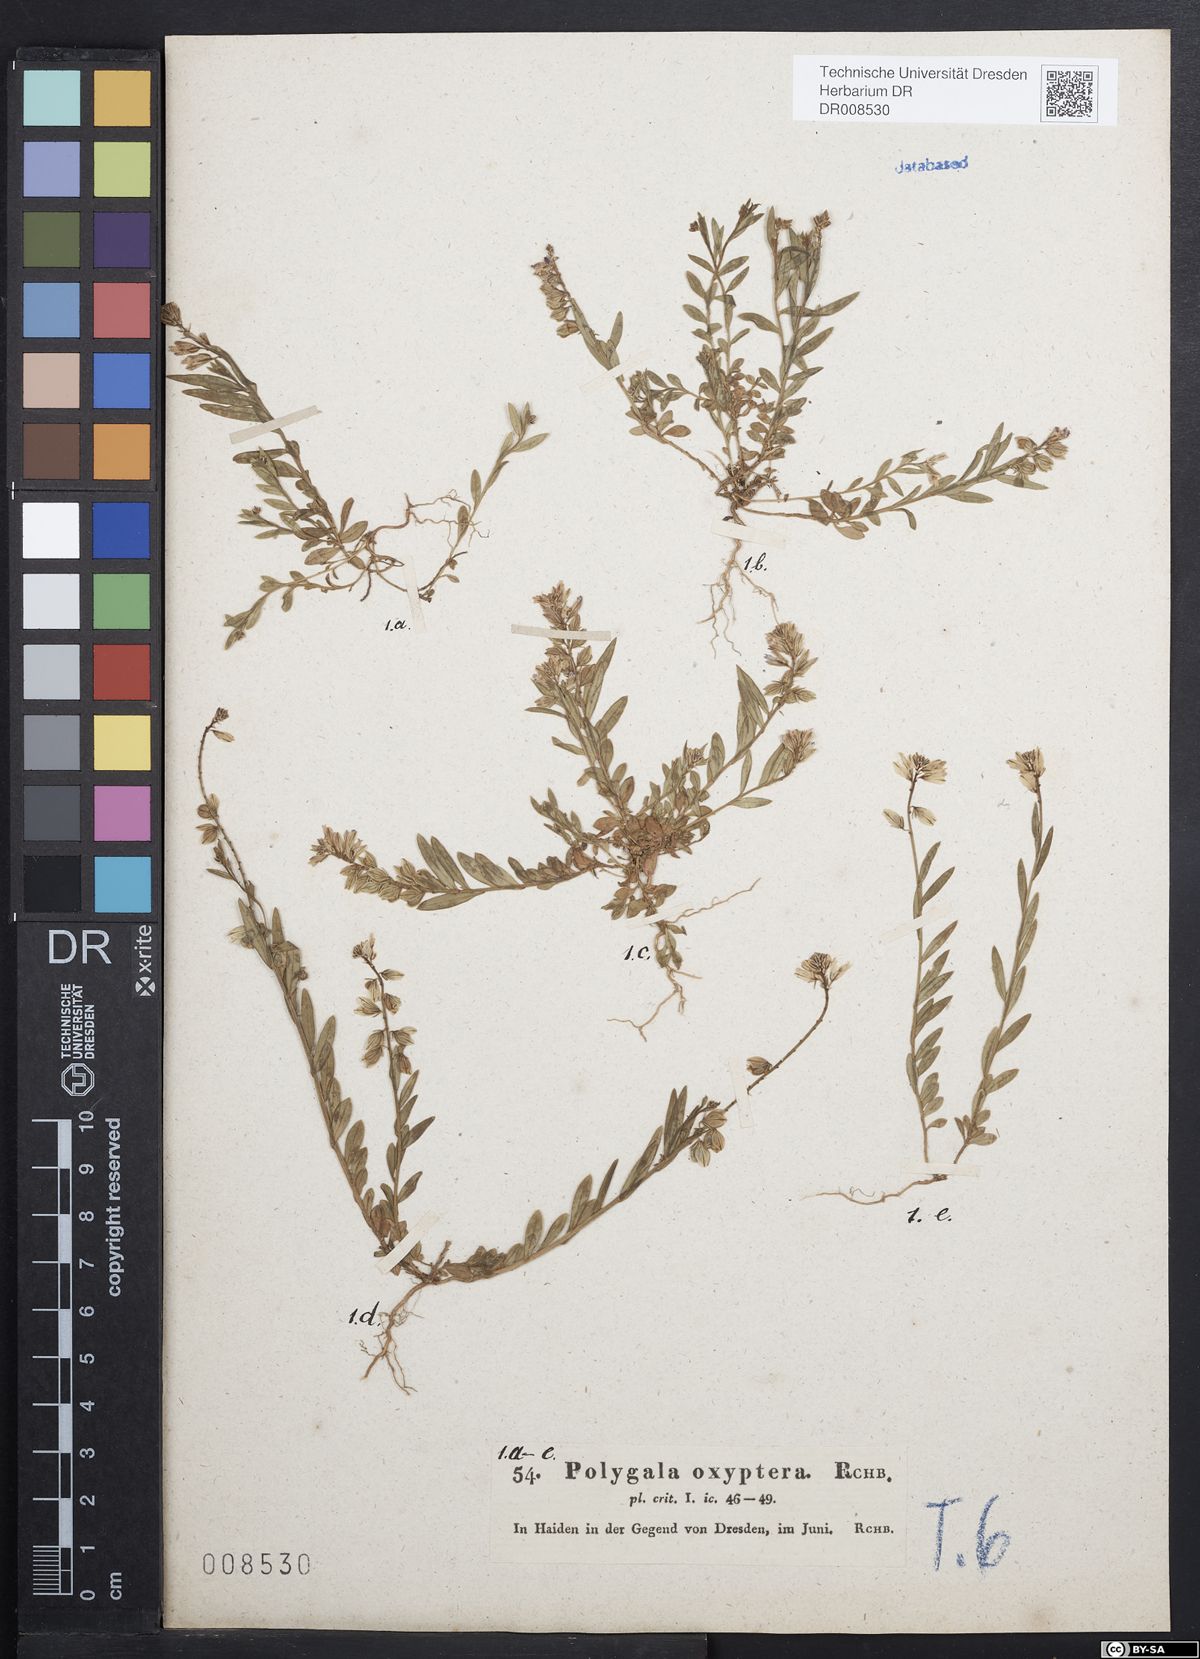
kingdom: Plantae
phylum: Tracheophyta
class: Magnoliopsida
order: Fabales
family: Polygalaceae
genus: Polygala
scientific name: Polygala vulgaris
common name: Common milkwort
